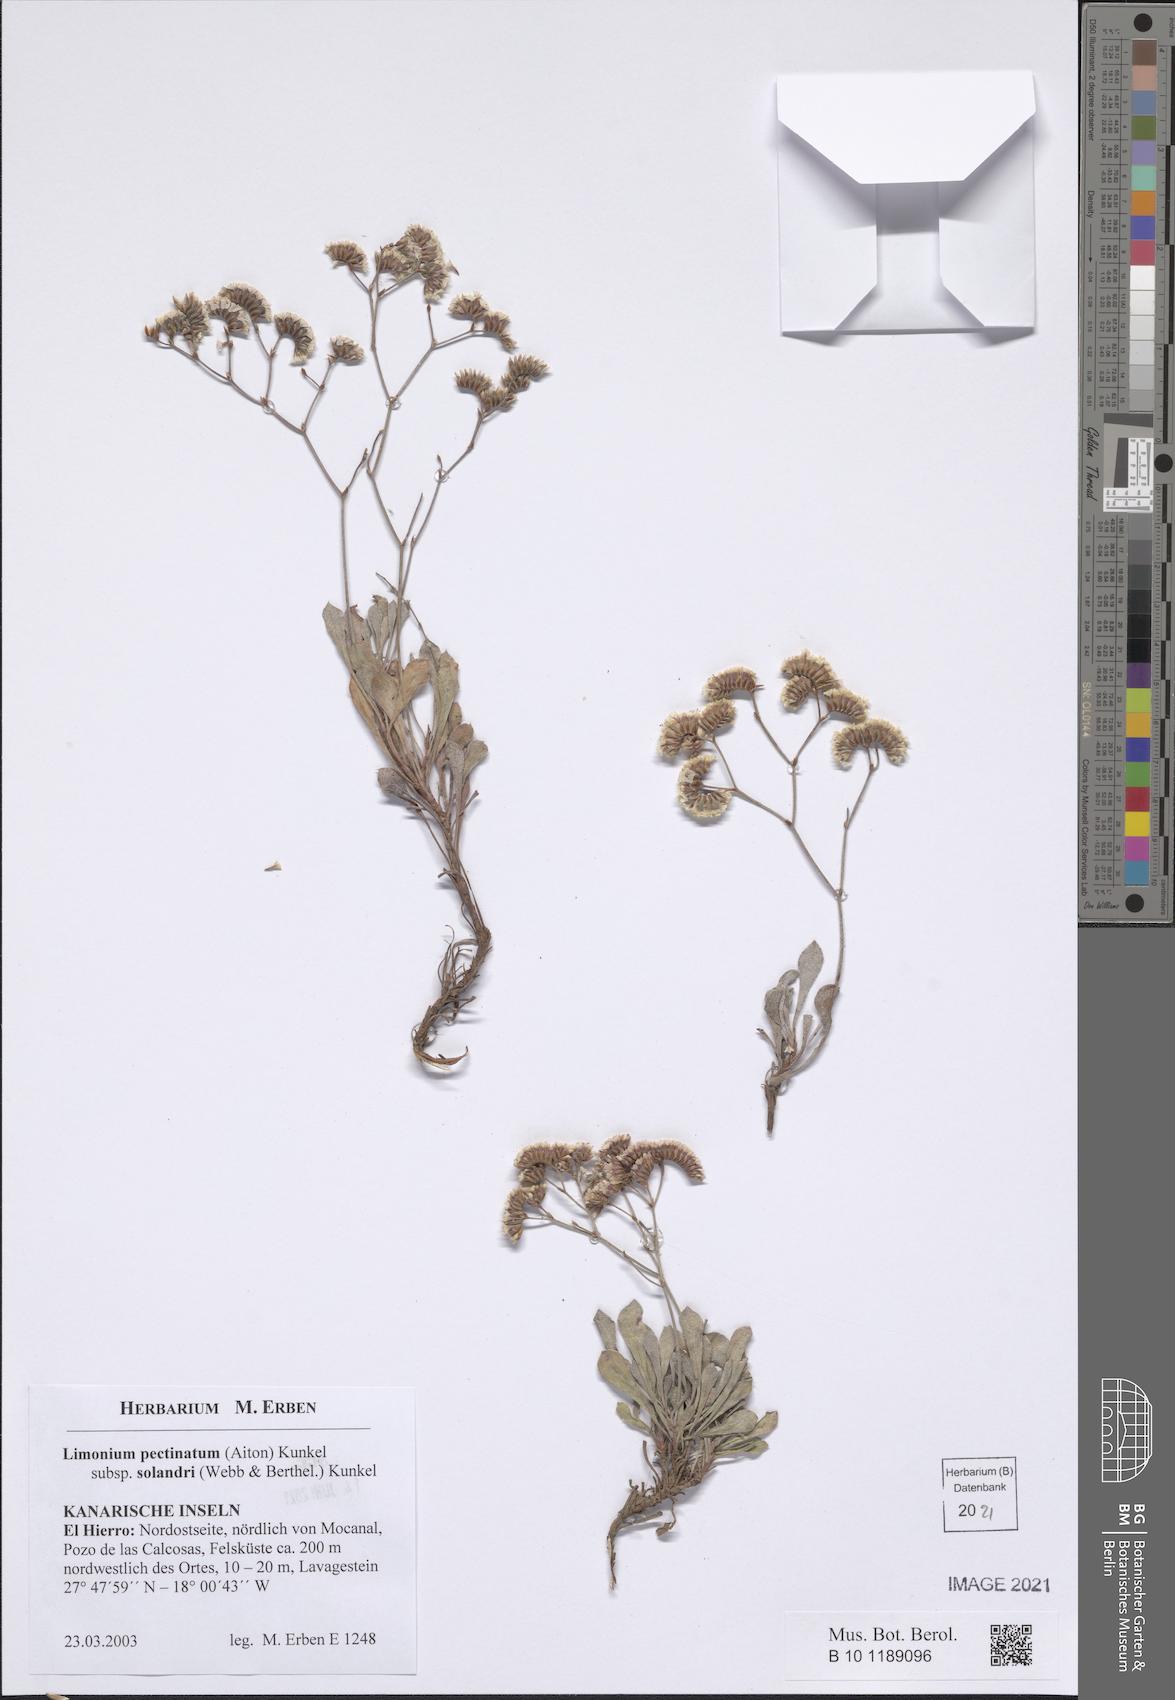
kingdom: Plantae
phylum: Tracheophyta
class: Magnoliopsida
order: Caryophyllales
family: Plumbaginaceae
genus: Limonium
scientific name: Limonium pectinatum
